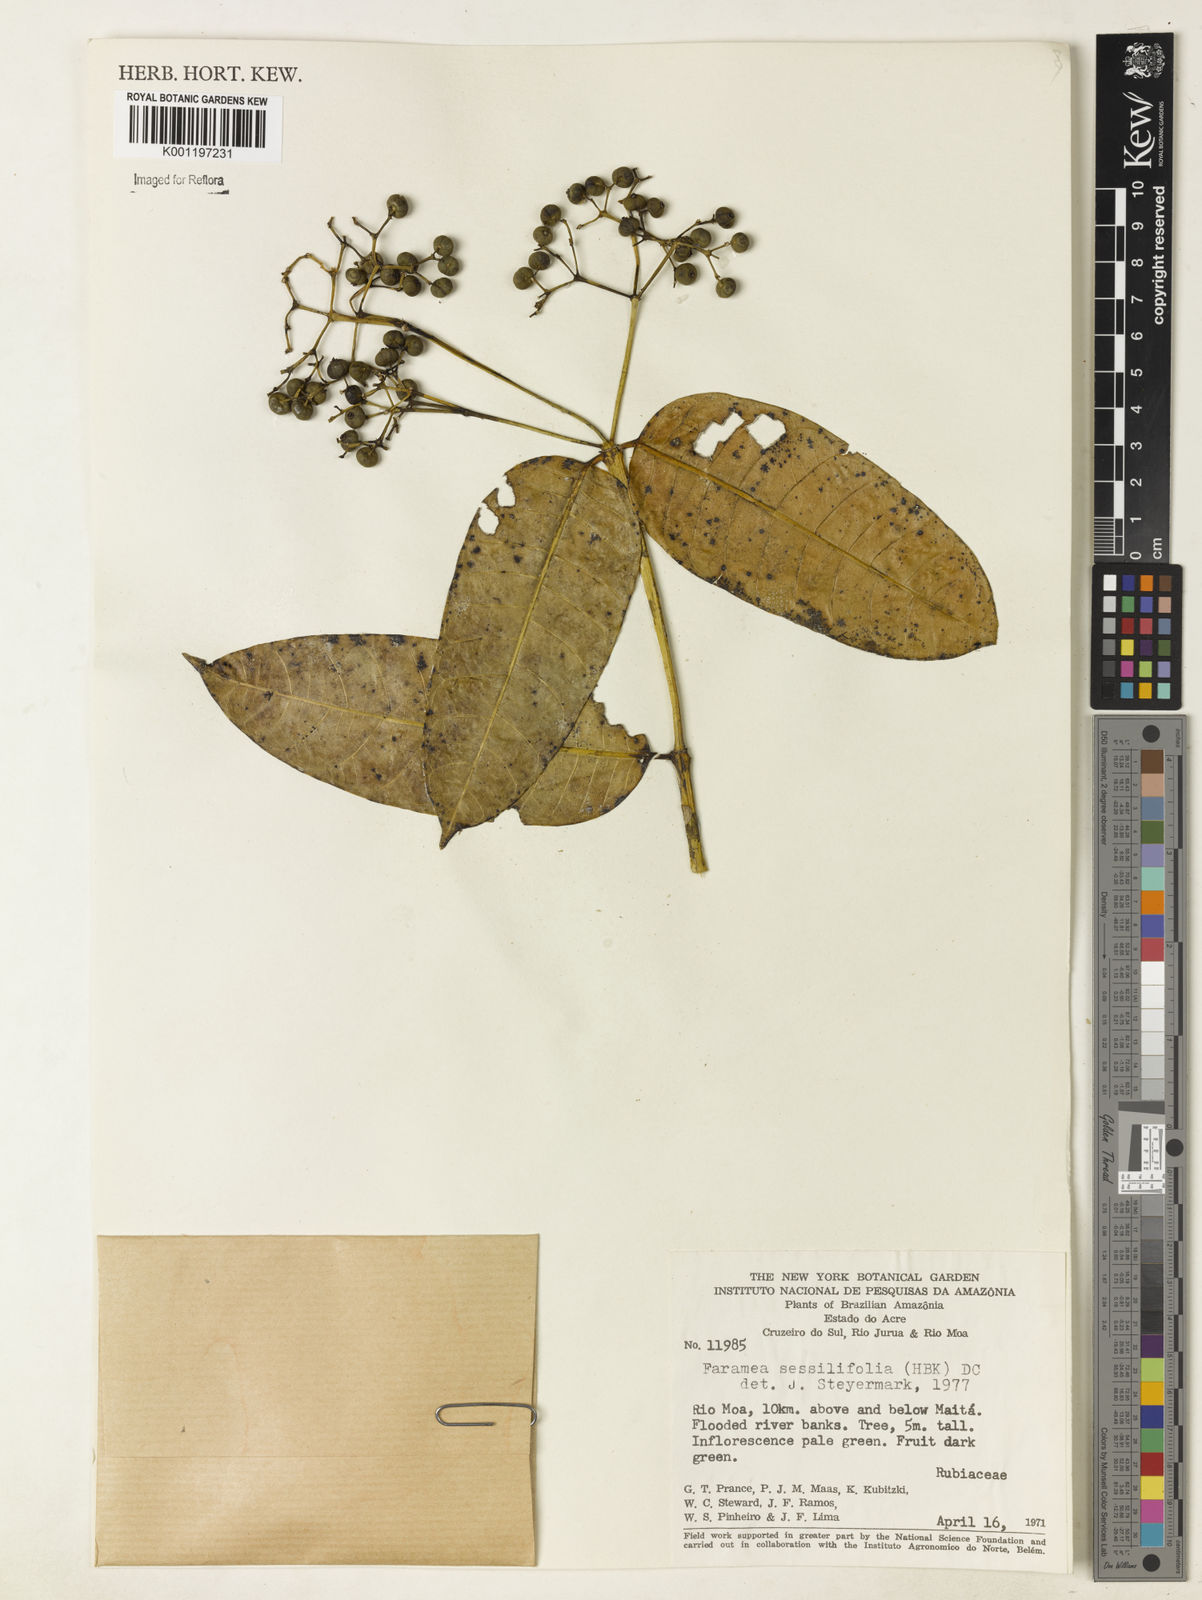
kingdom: Plantae
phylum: Tracheophyta
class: Magnoliopsida
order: Gentianales
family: Rubiaceae
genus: Faramea
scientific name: Faramea sessilifolia
